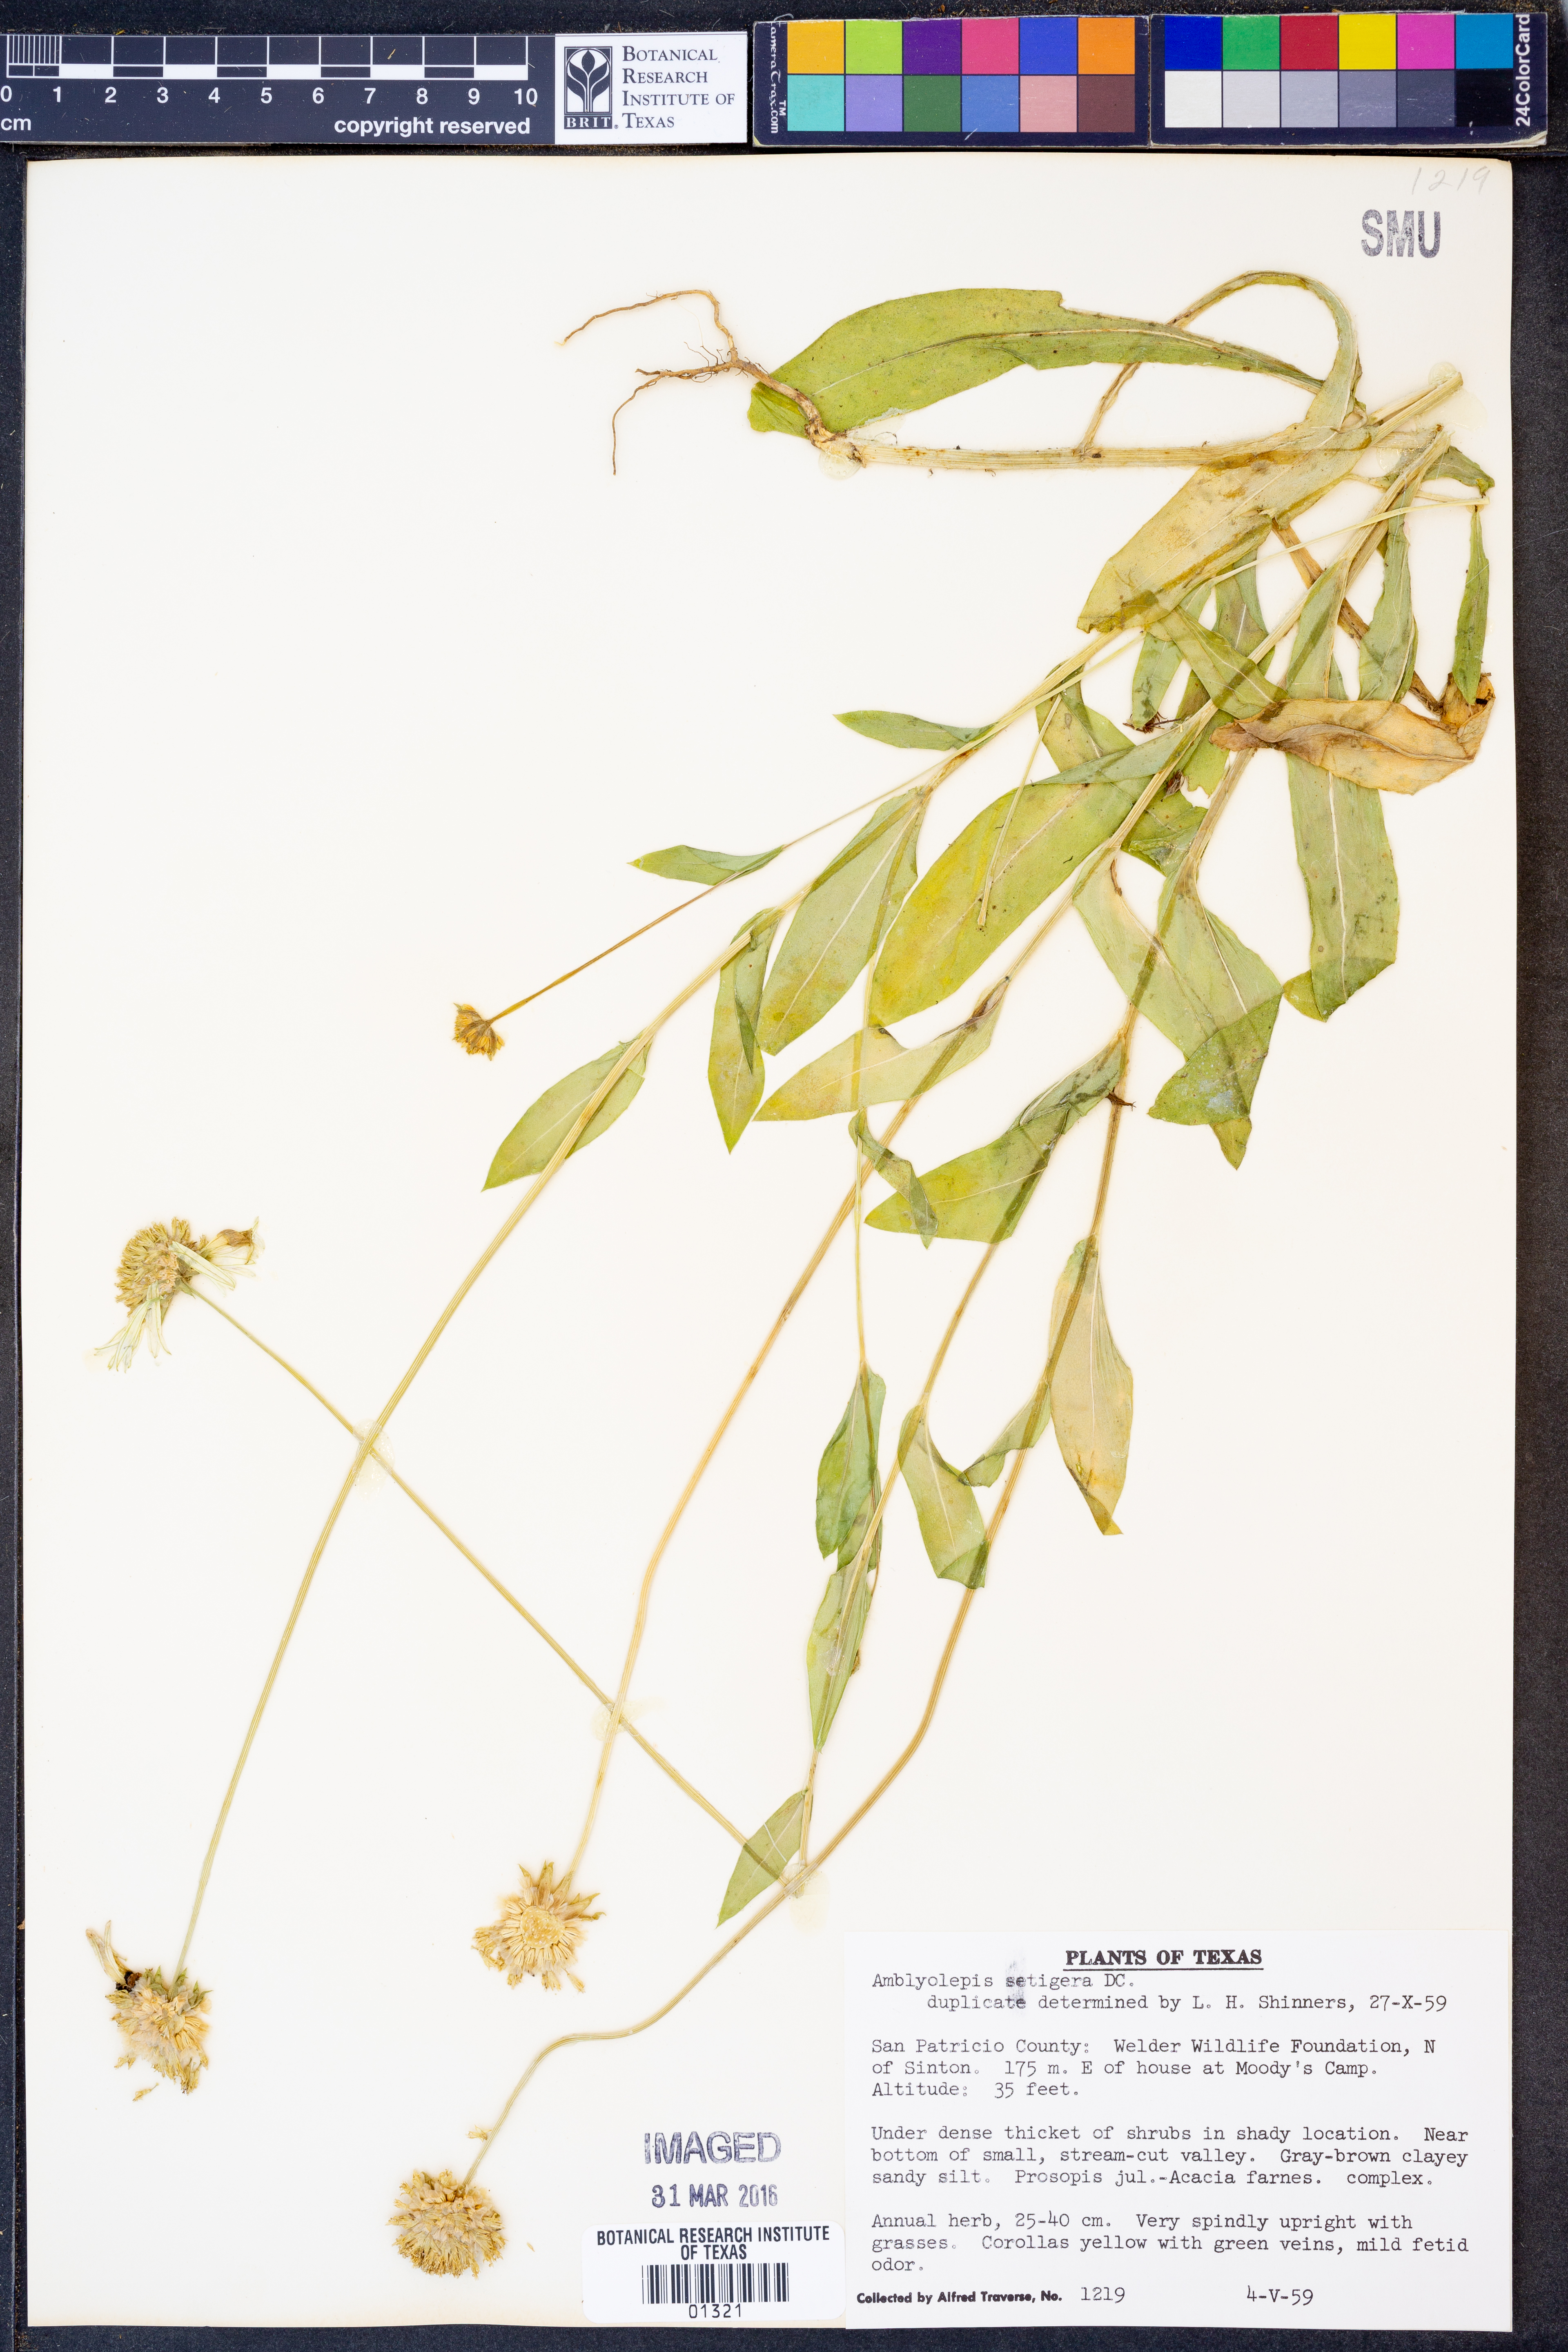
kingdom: Plantae
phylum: Tracheophyta
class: Magnoliopsida
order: Asterales
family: Asteraceae
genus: Amblyolepis
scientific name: Amblyolepis setigera
